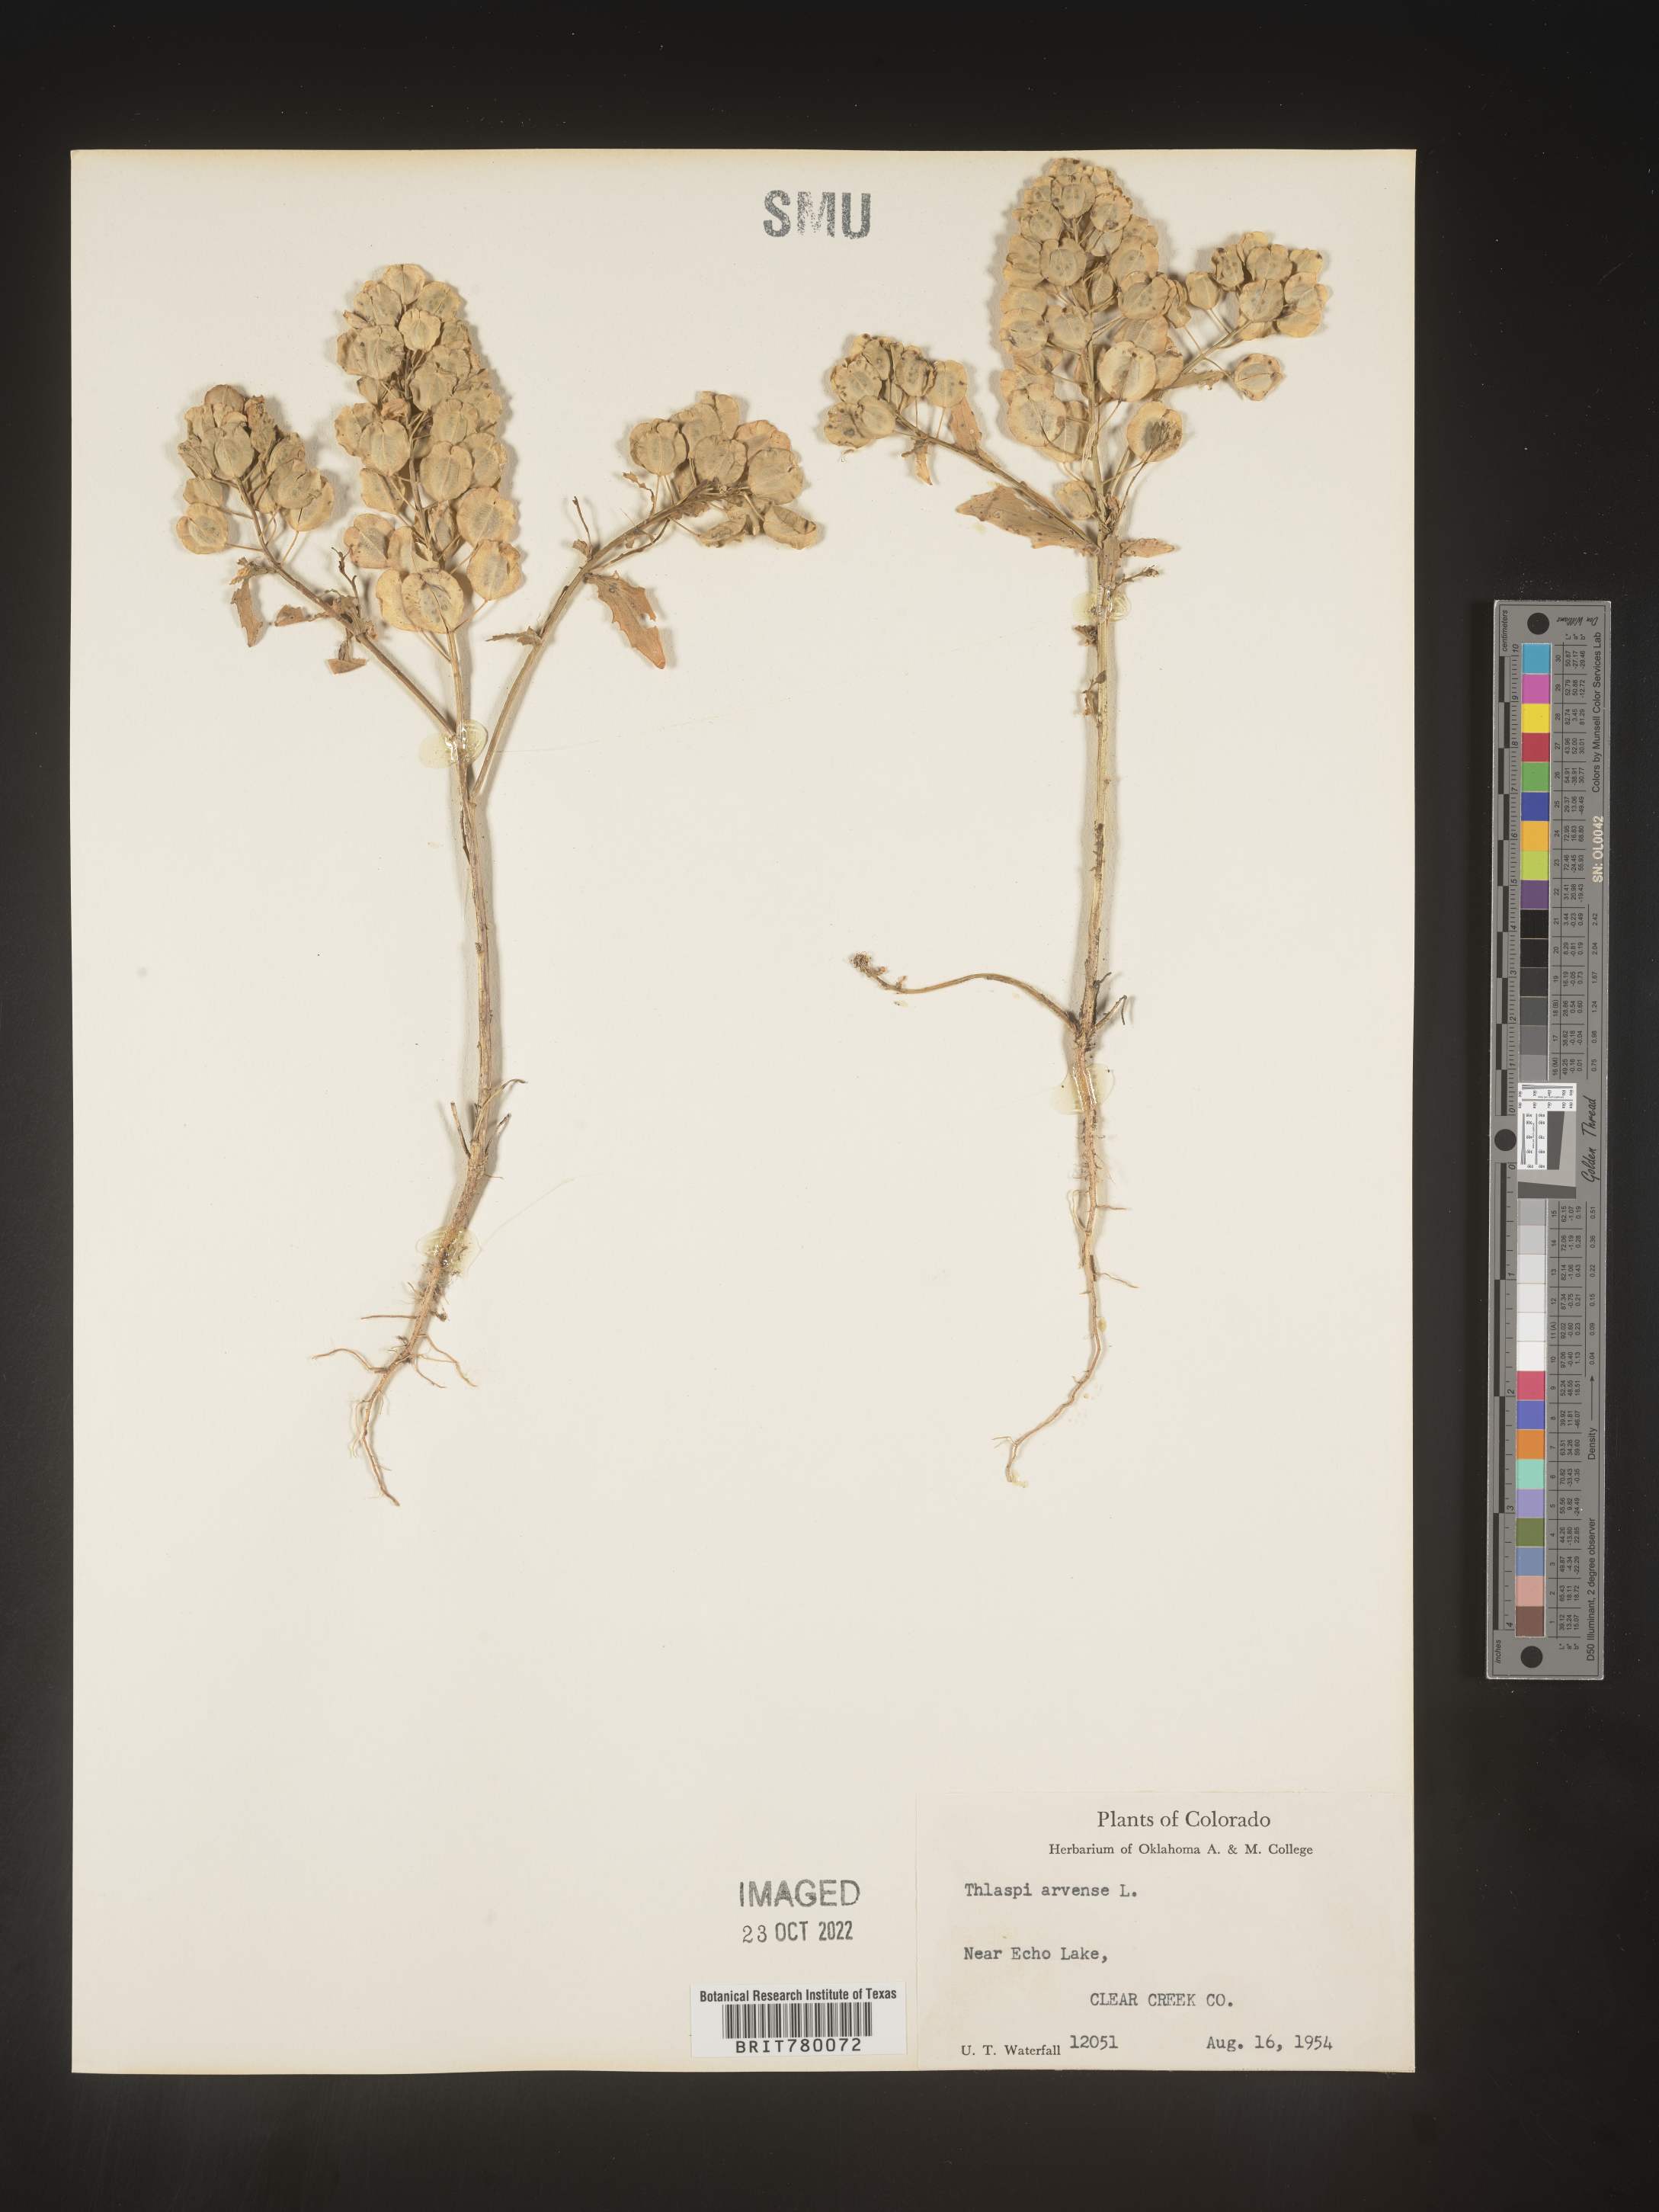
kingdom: Plantae
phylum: Tracheophyta
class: Magnoliopsida
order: Brassicales
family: Brassicaceae
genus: Thlaspi
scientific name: Thlaspi arvense
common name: Field pennycress
